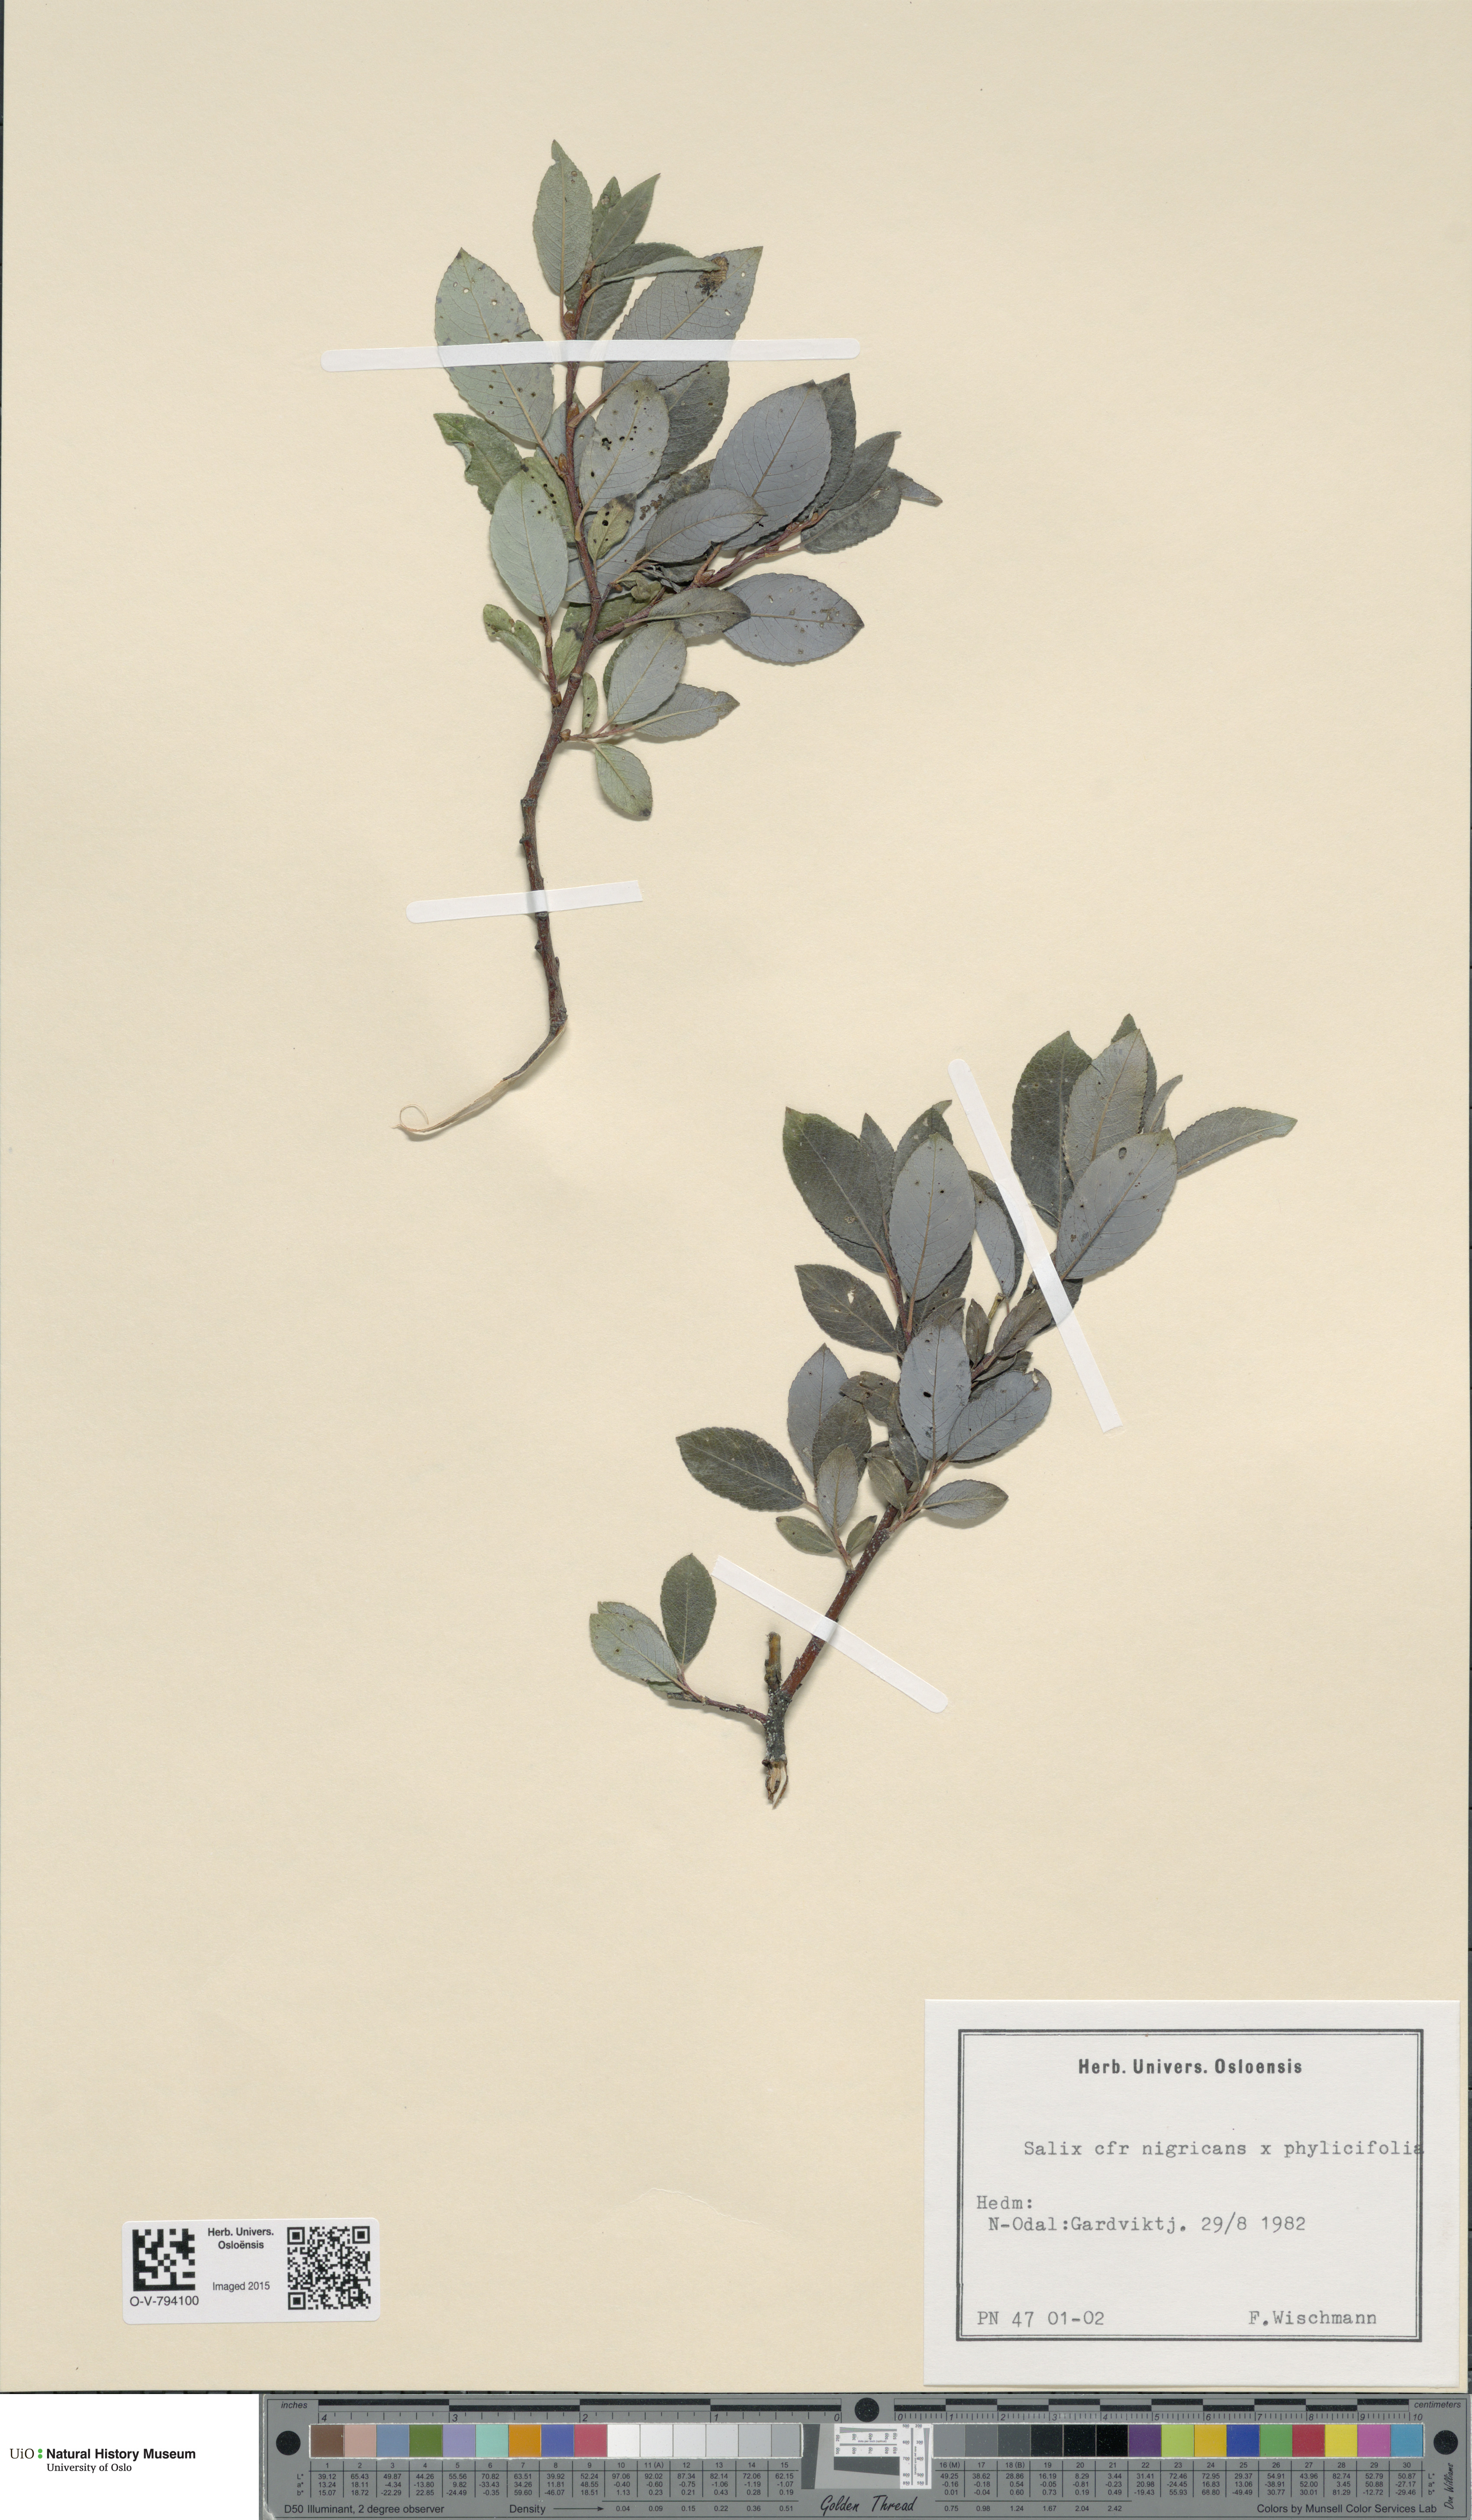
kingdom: Plantae
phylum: Tracheophyta
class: Magnoliopsida
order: Malpighiales
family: Salicaceae
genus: Salix
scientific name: Salix
